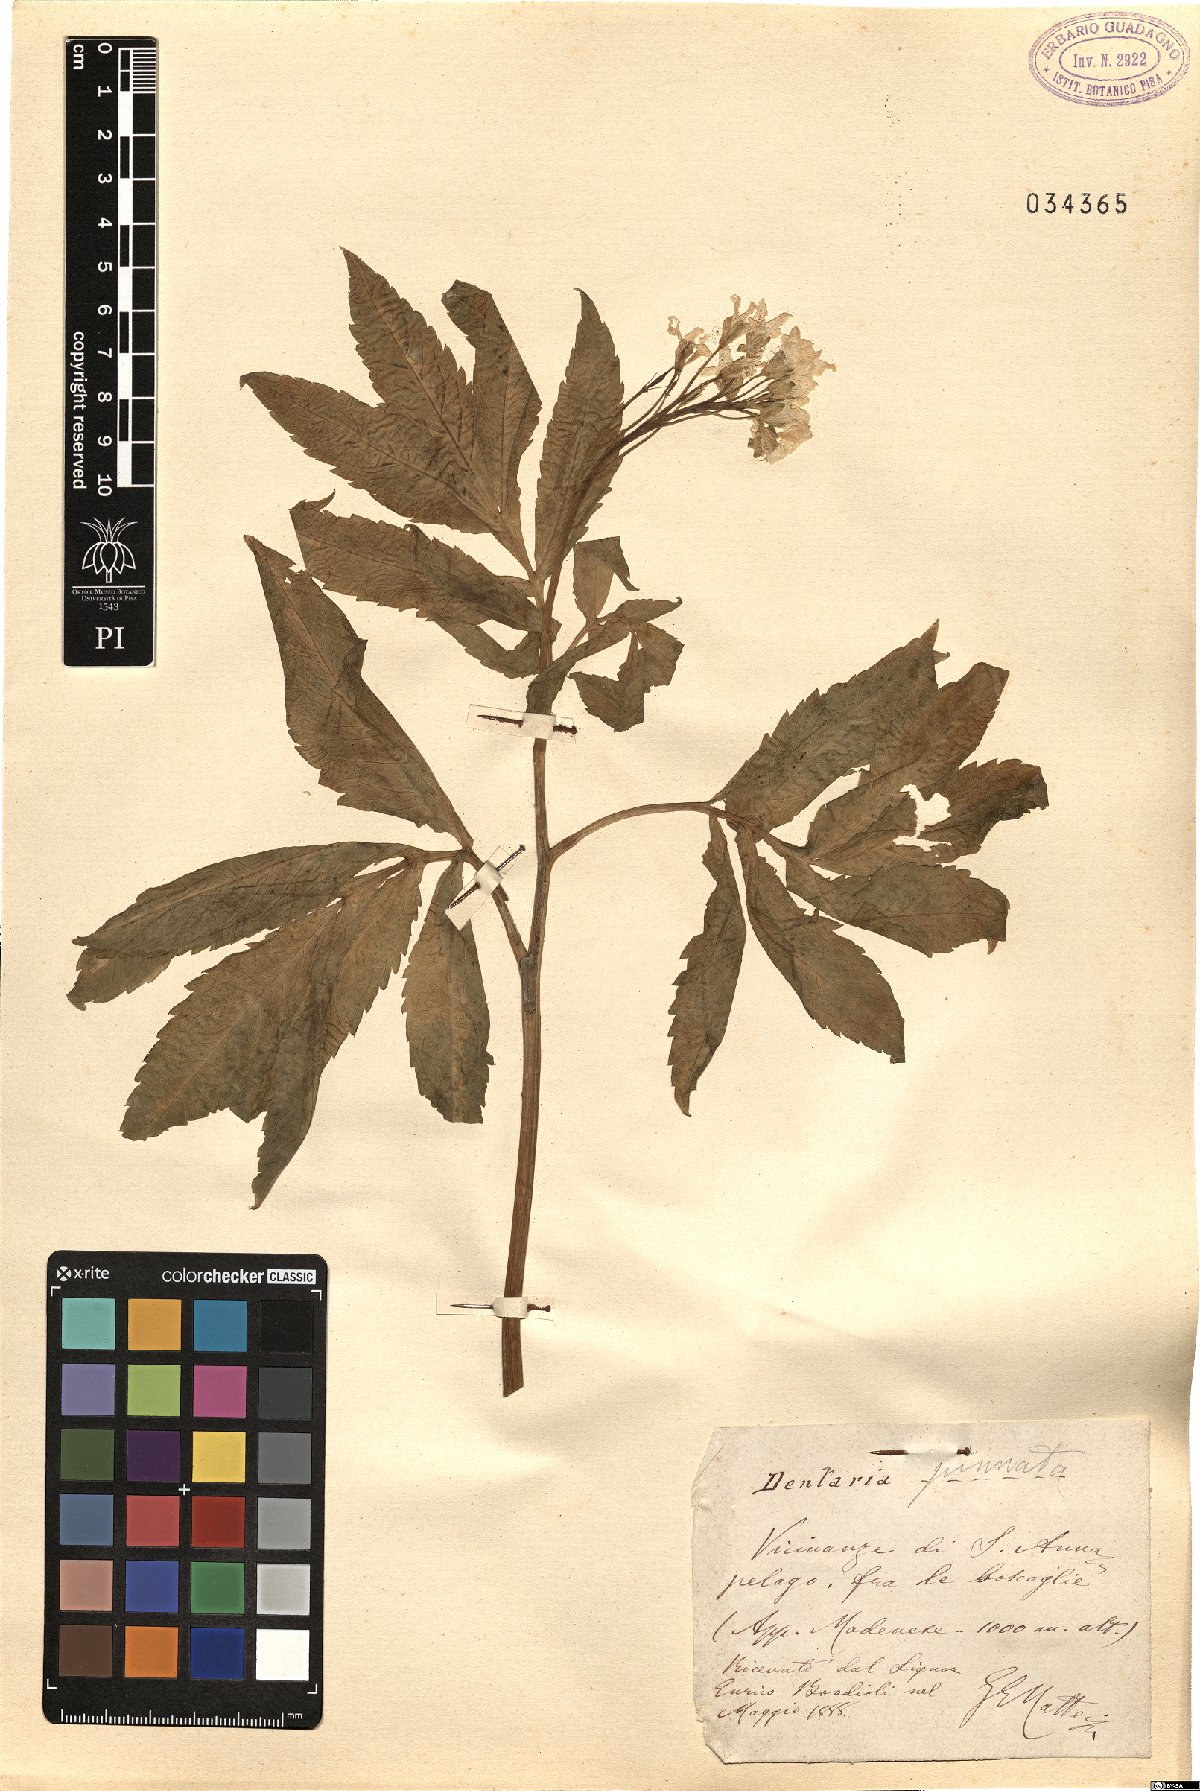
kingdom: Plantae
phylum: Tracheophyta
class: Magnoliopsida
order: Brassicales
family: Brassicaceae
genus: Cardamine
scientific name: Cardamine heptaphylla
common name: Pinnate coralroot
